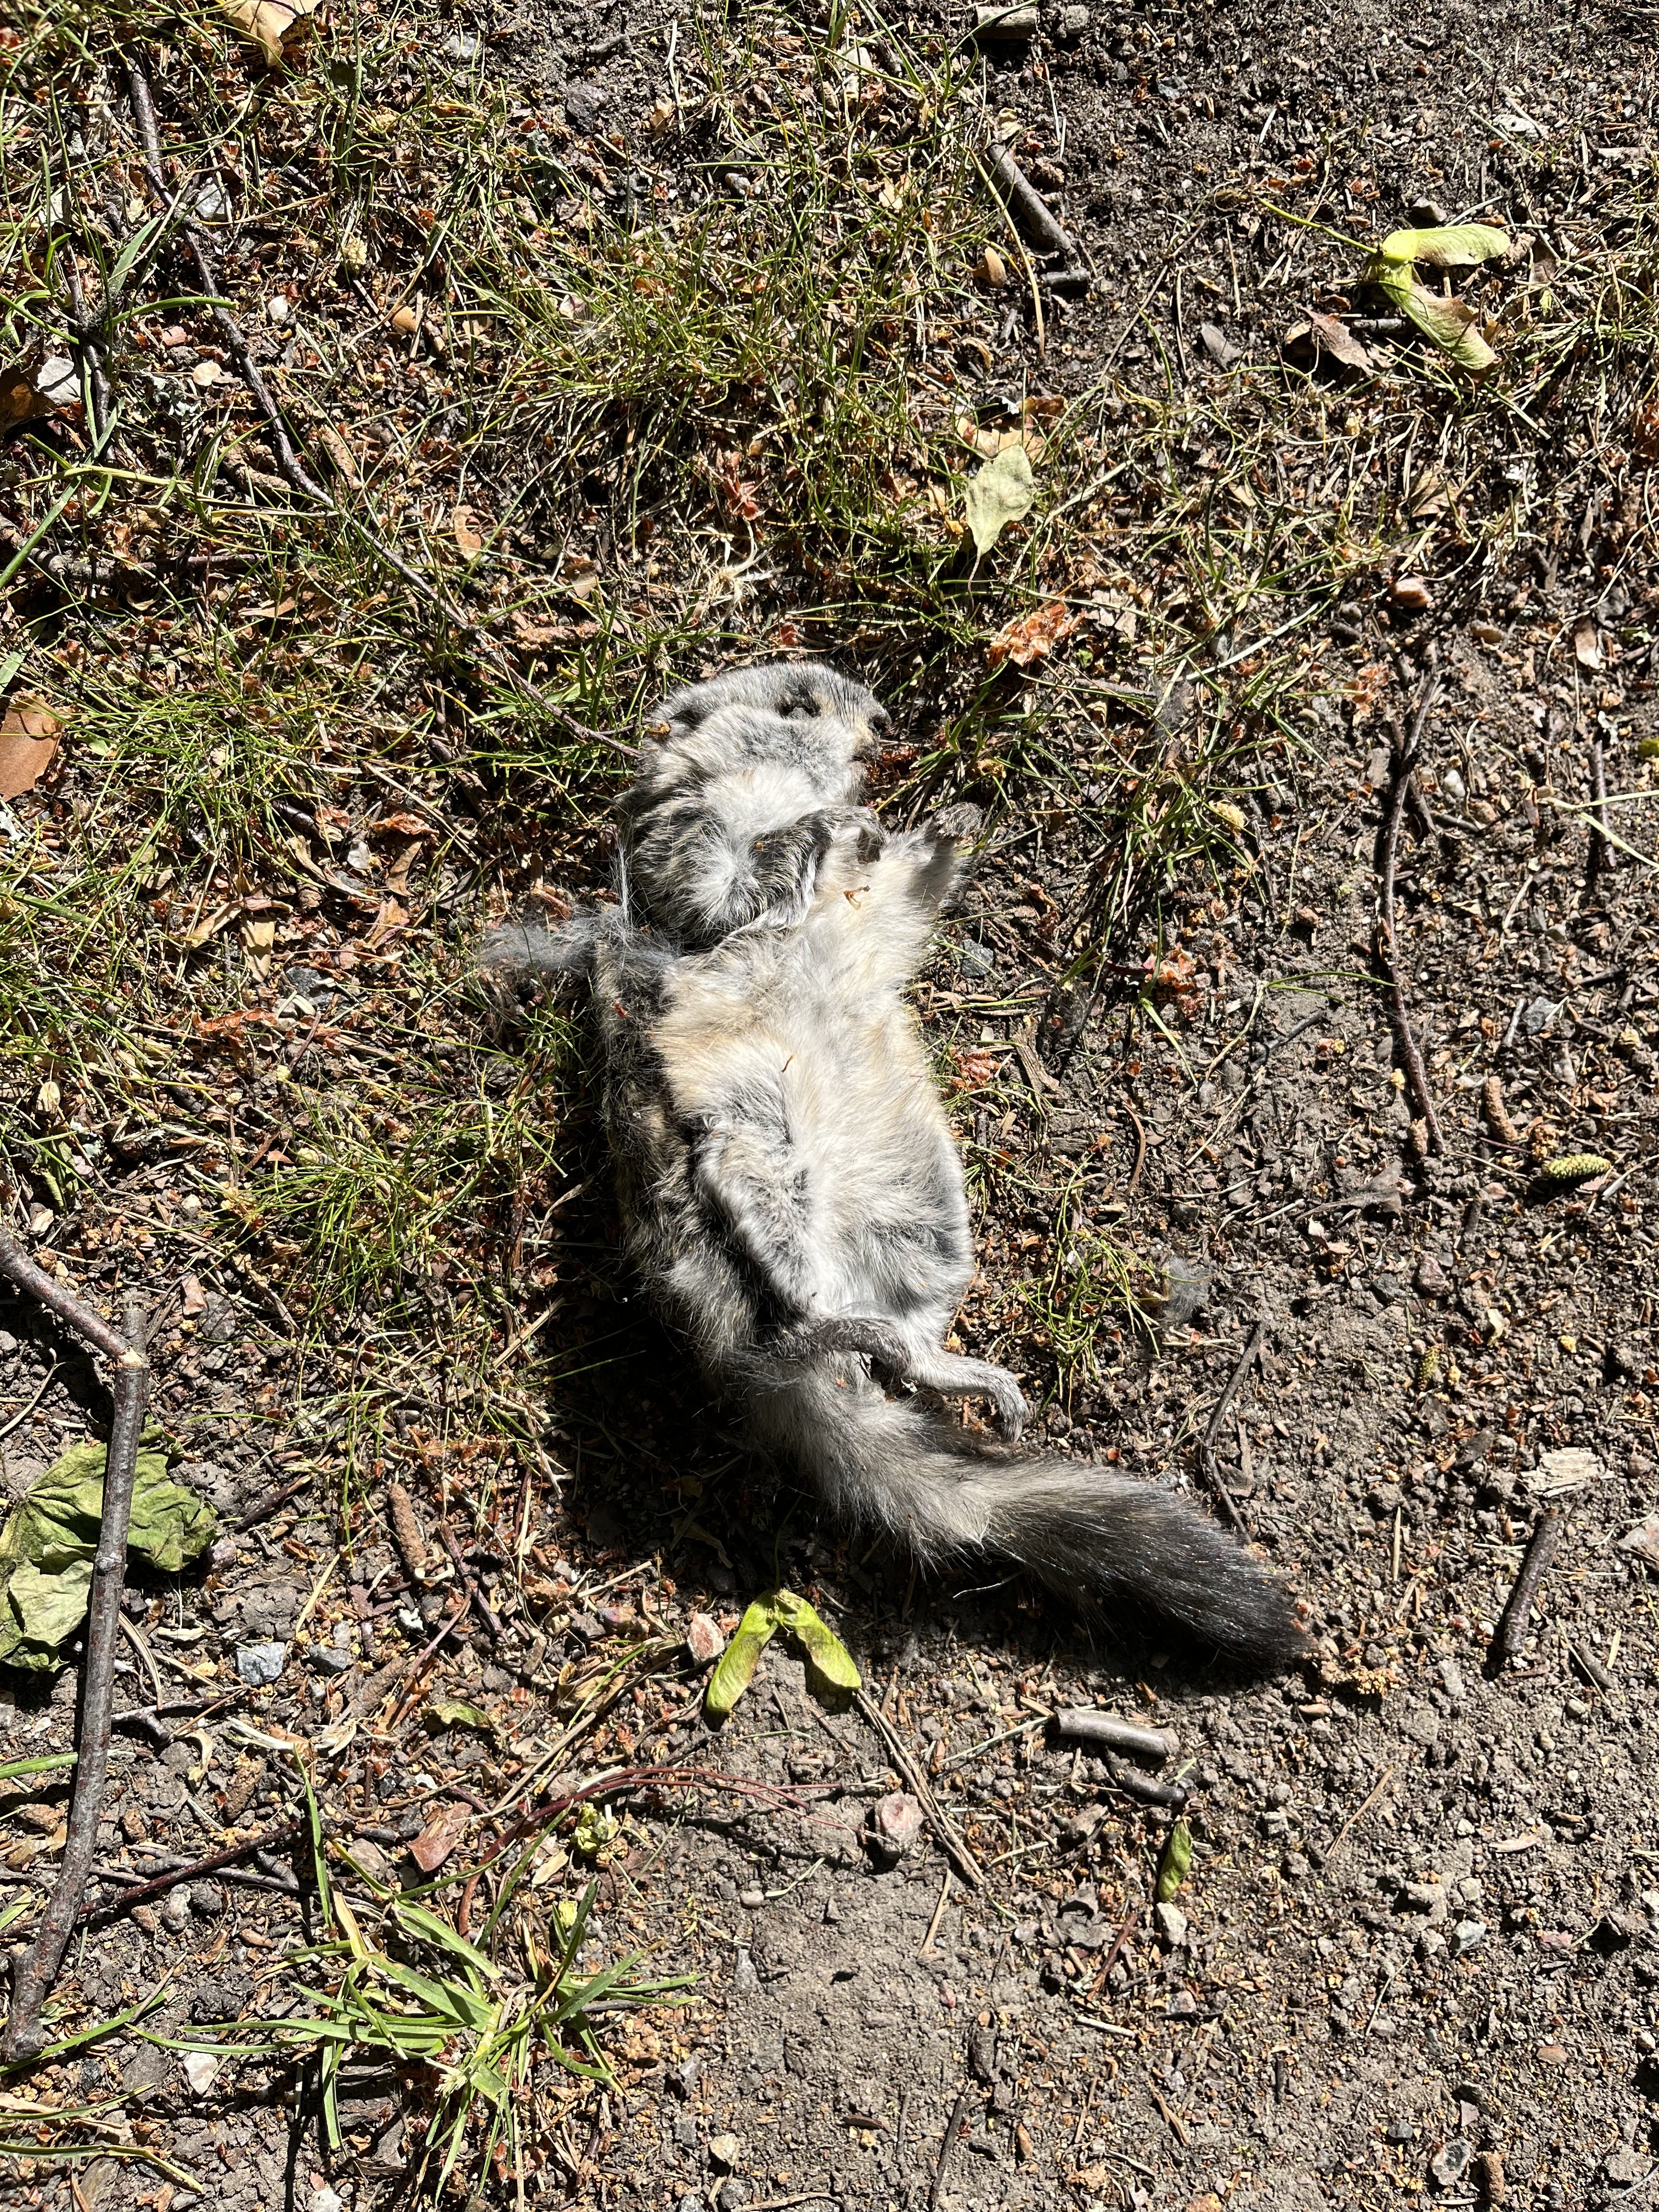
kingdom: Animalia
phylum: Chordata
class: Mammalia
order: Rodentia
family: Sciuridae
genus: Pteromys
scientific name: Pteromys volans
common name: Siberian flying squirrel
